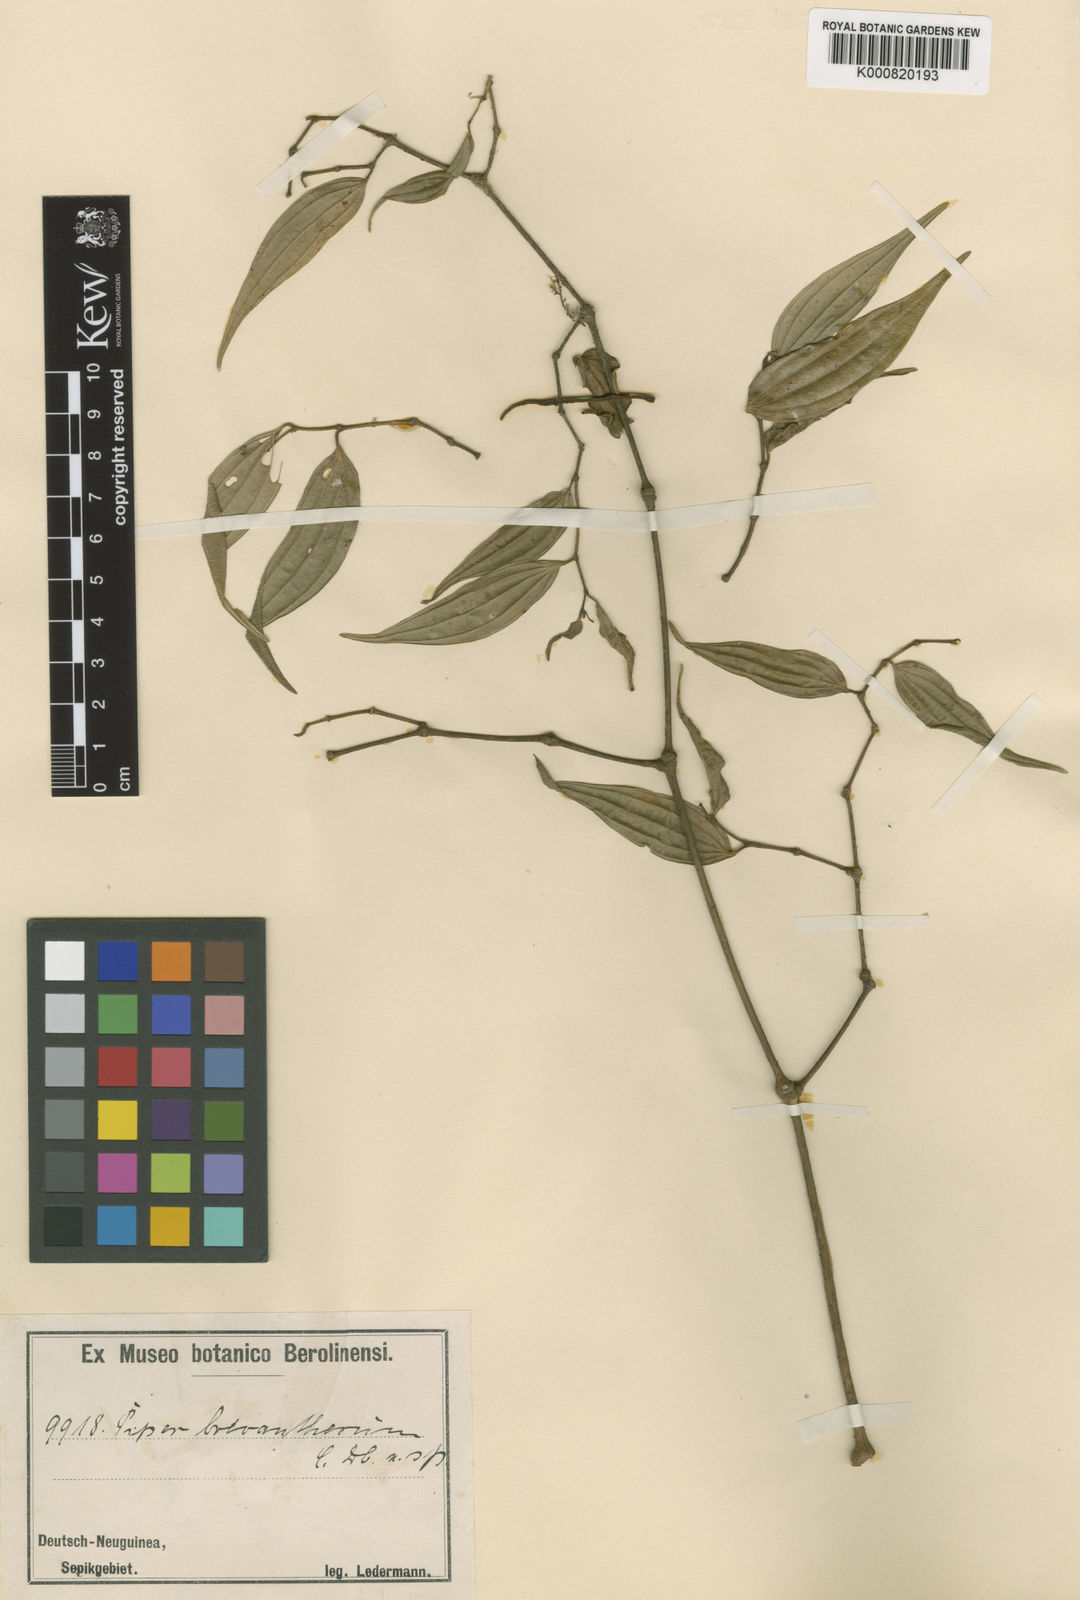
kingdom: Plantae
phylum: Tracheophyta
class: Magnoliopsida
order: Piperales
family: Piperaceae
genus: Piper
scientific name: Piper macropiper
